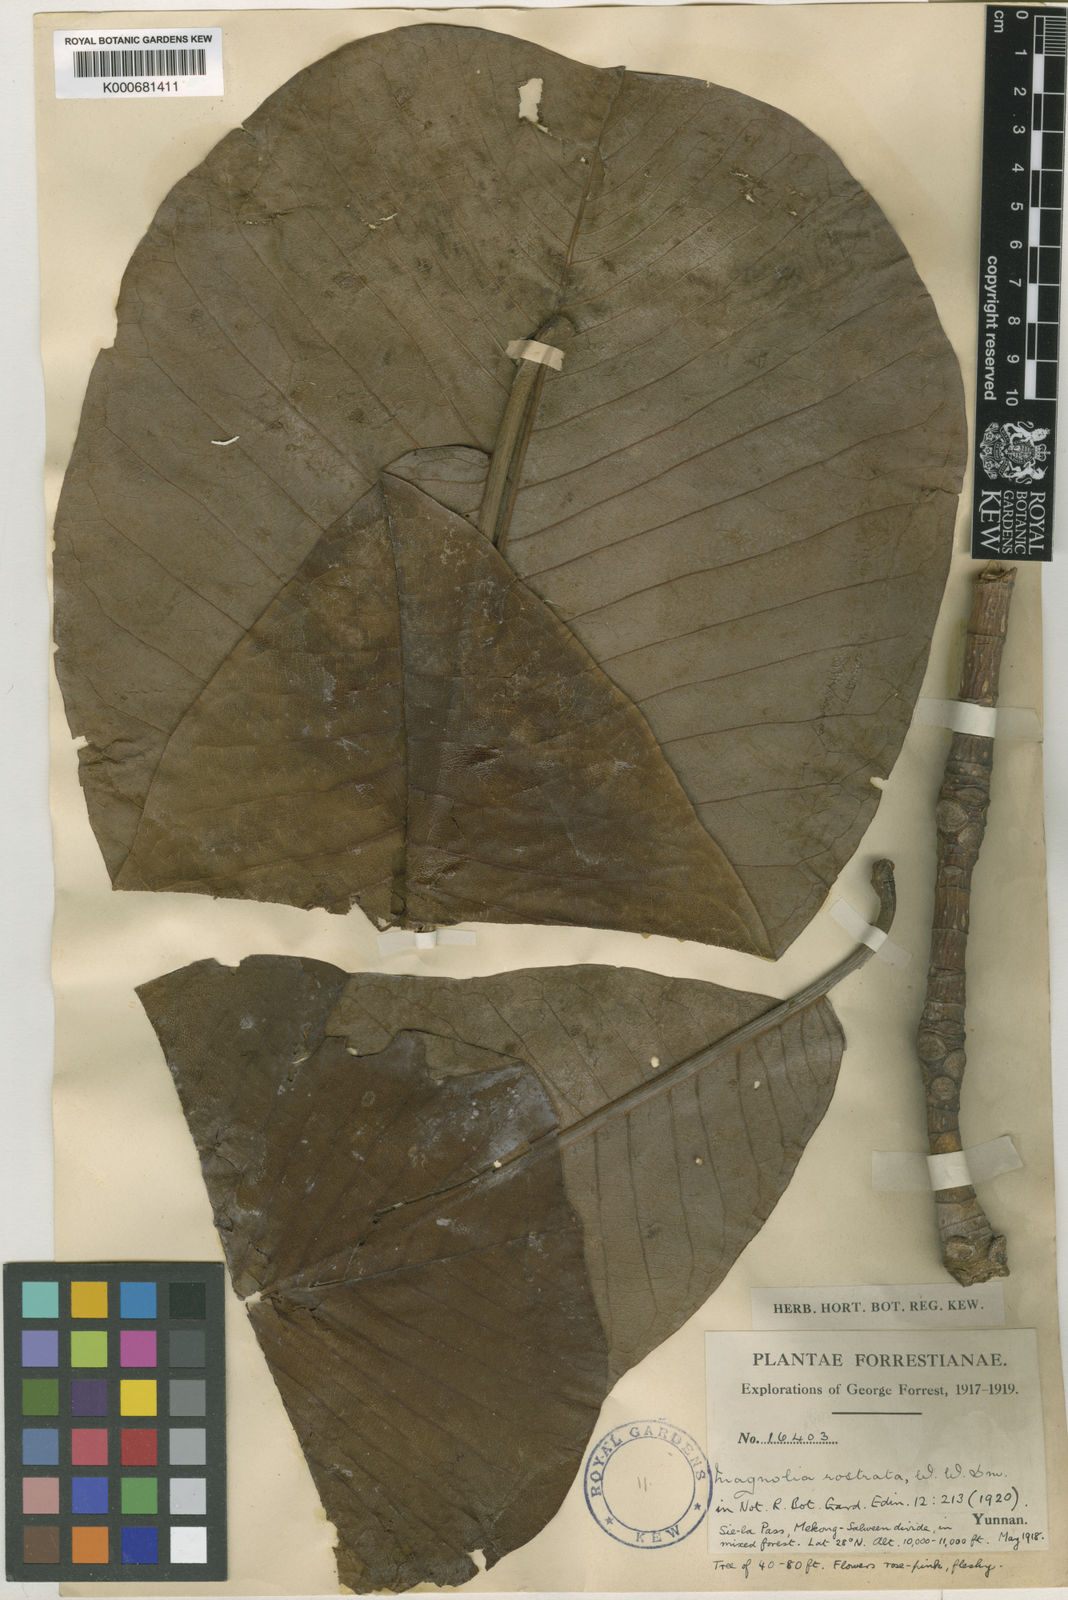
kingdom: Plantae
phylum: Tracheophyta
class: Magnoliopsida
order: Magnoliales
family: Magnoliaceae
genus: Magnolia
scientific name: Magnolia rostrata
